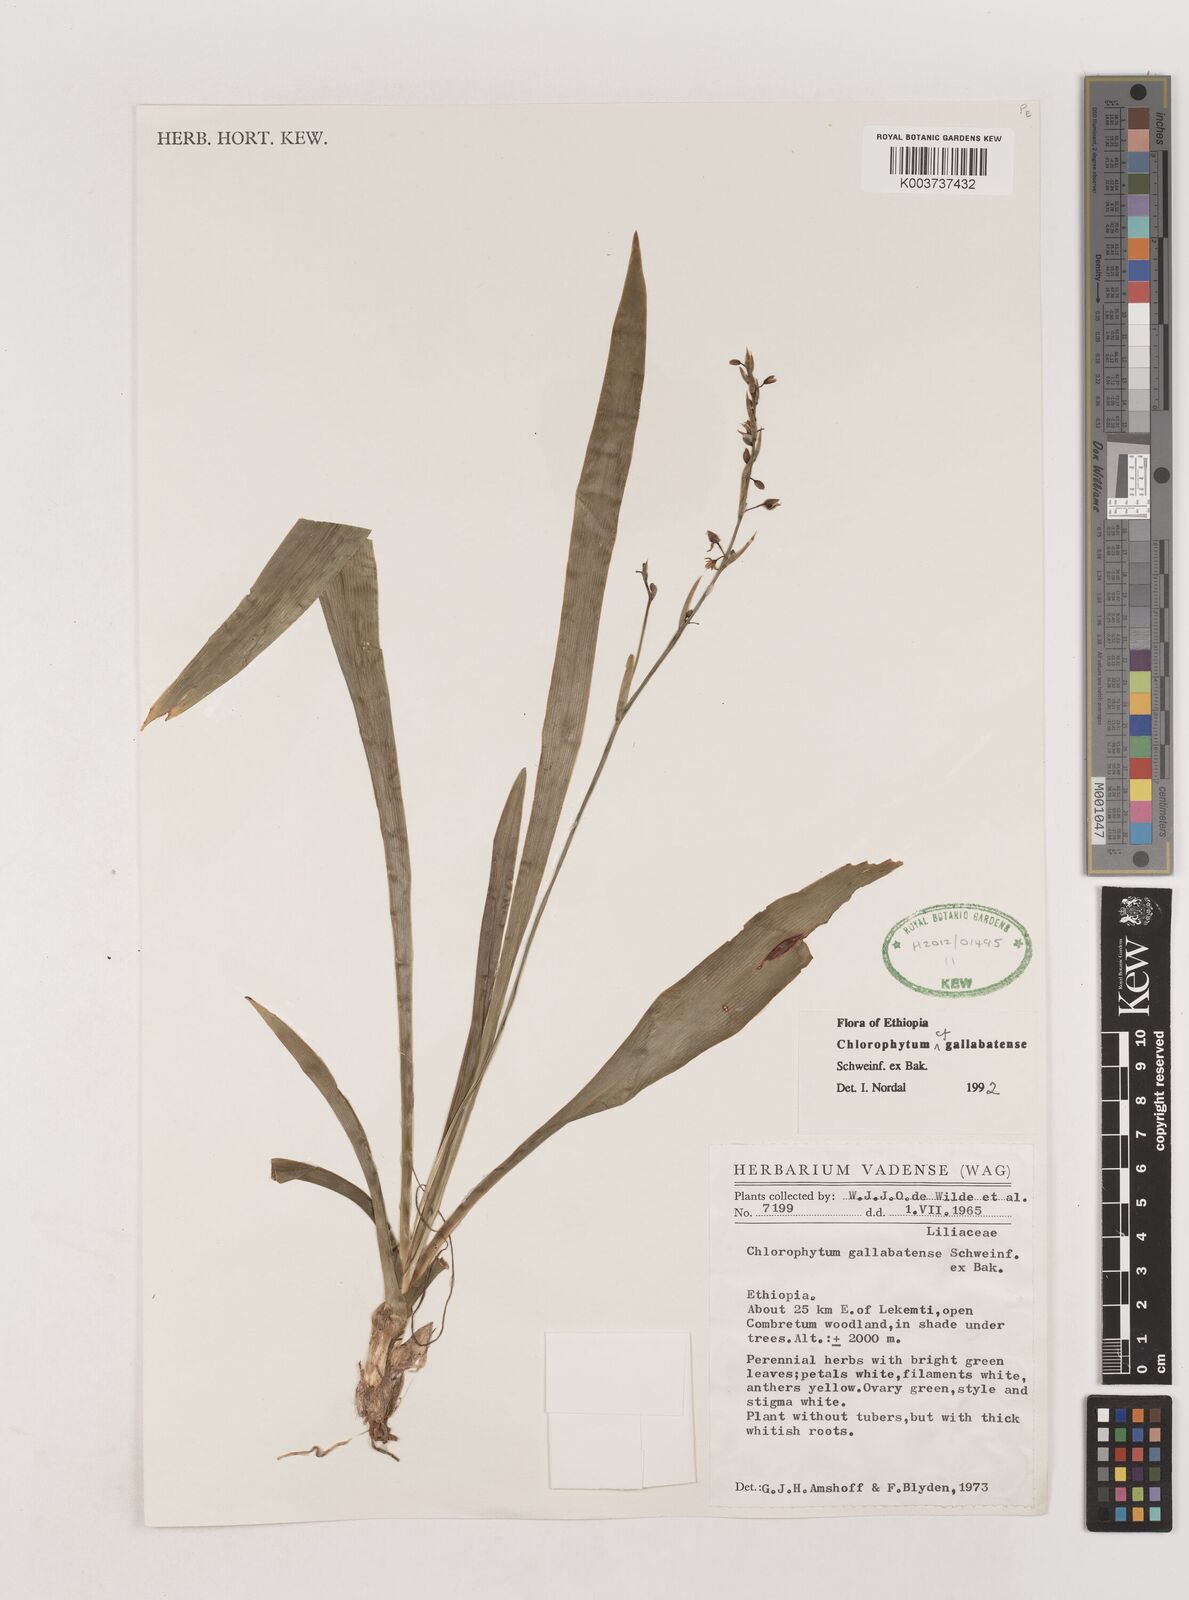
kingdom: Plantae
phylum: Tracheophyta
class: Liliopsida
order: Asparagales
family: Asparagaceae
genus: Chlorophytum
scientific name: Chlorophytum gallabatense
